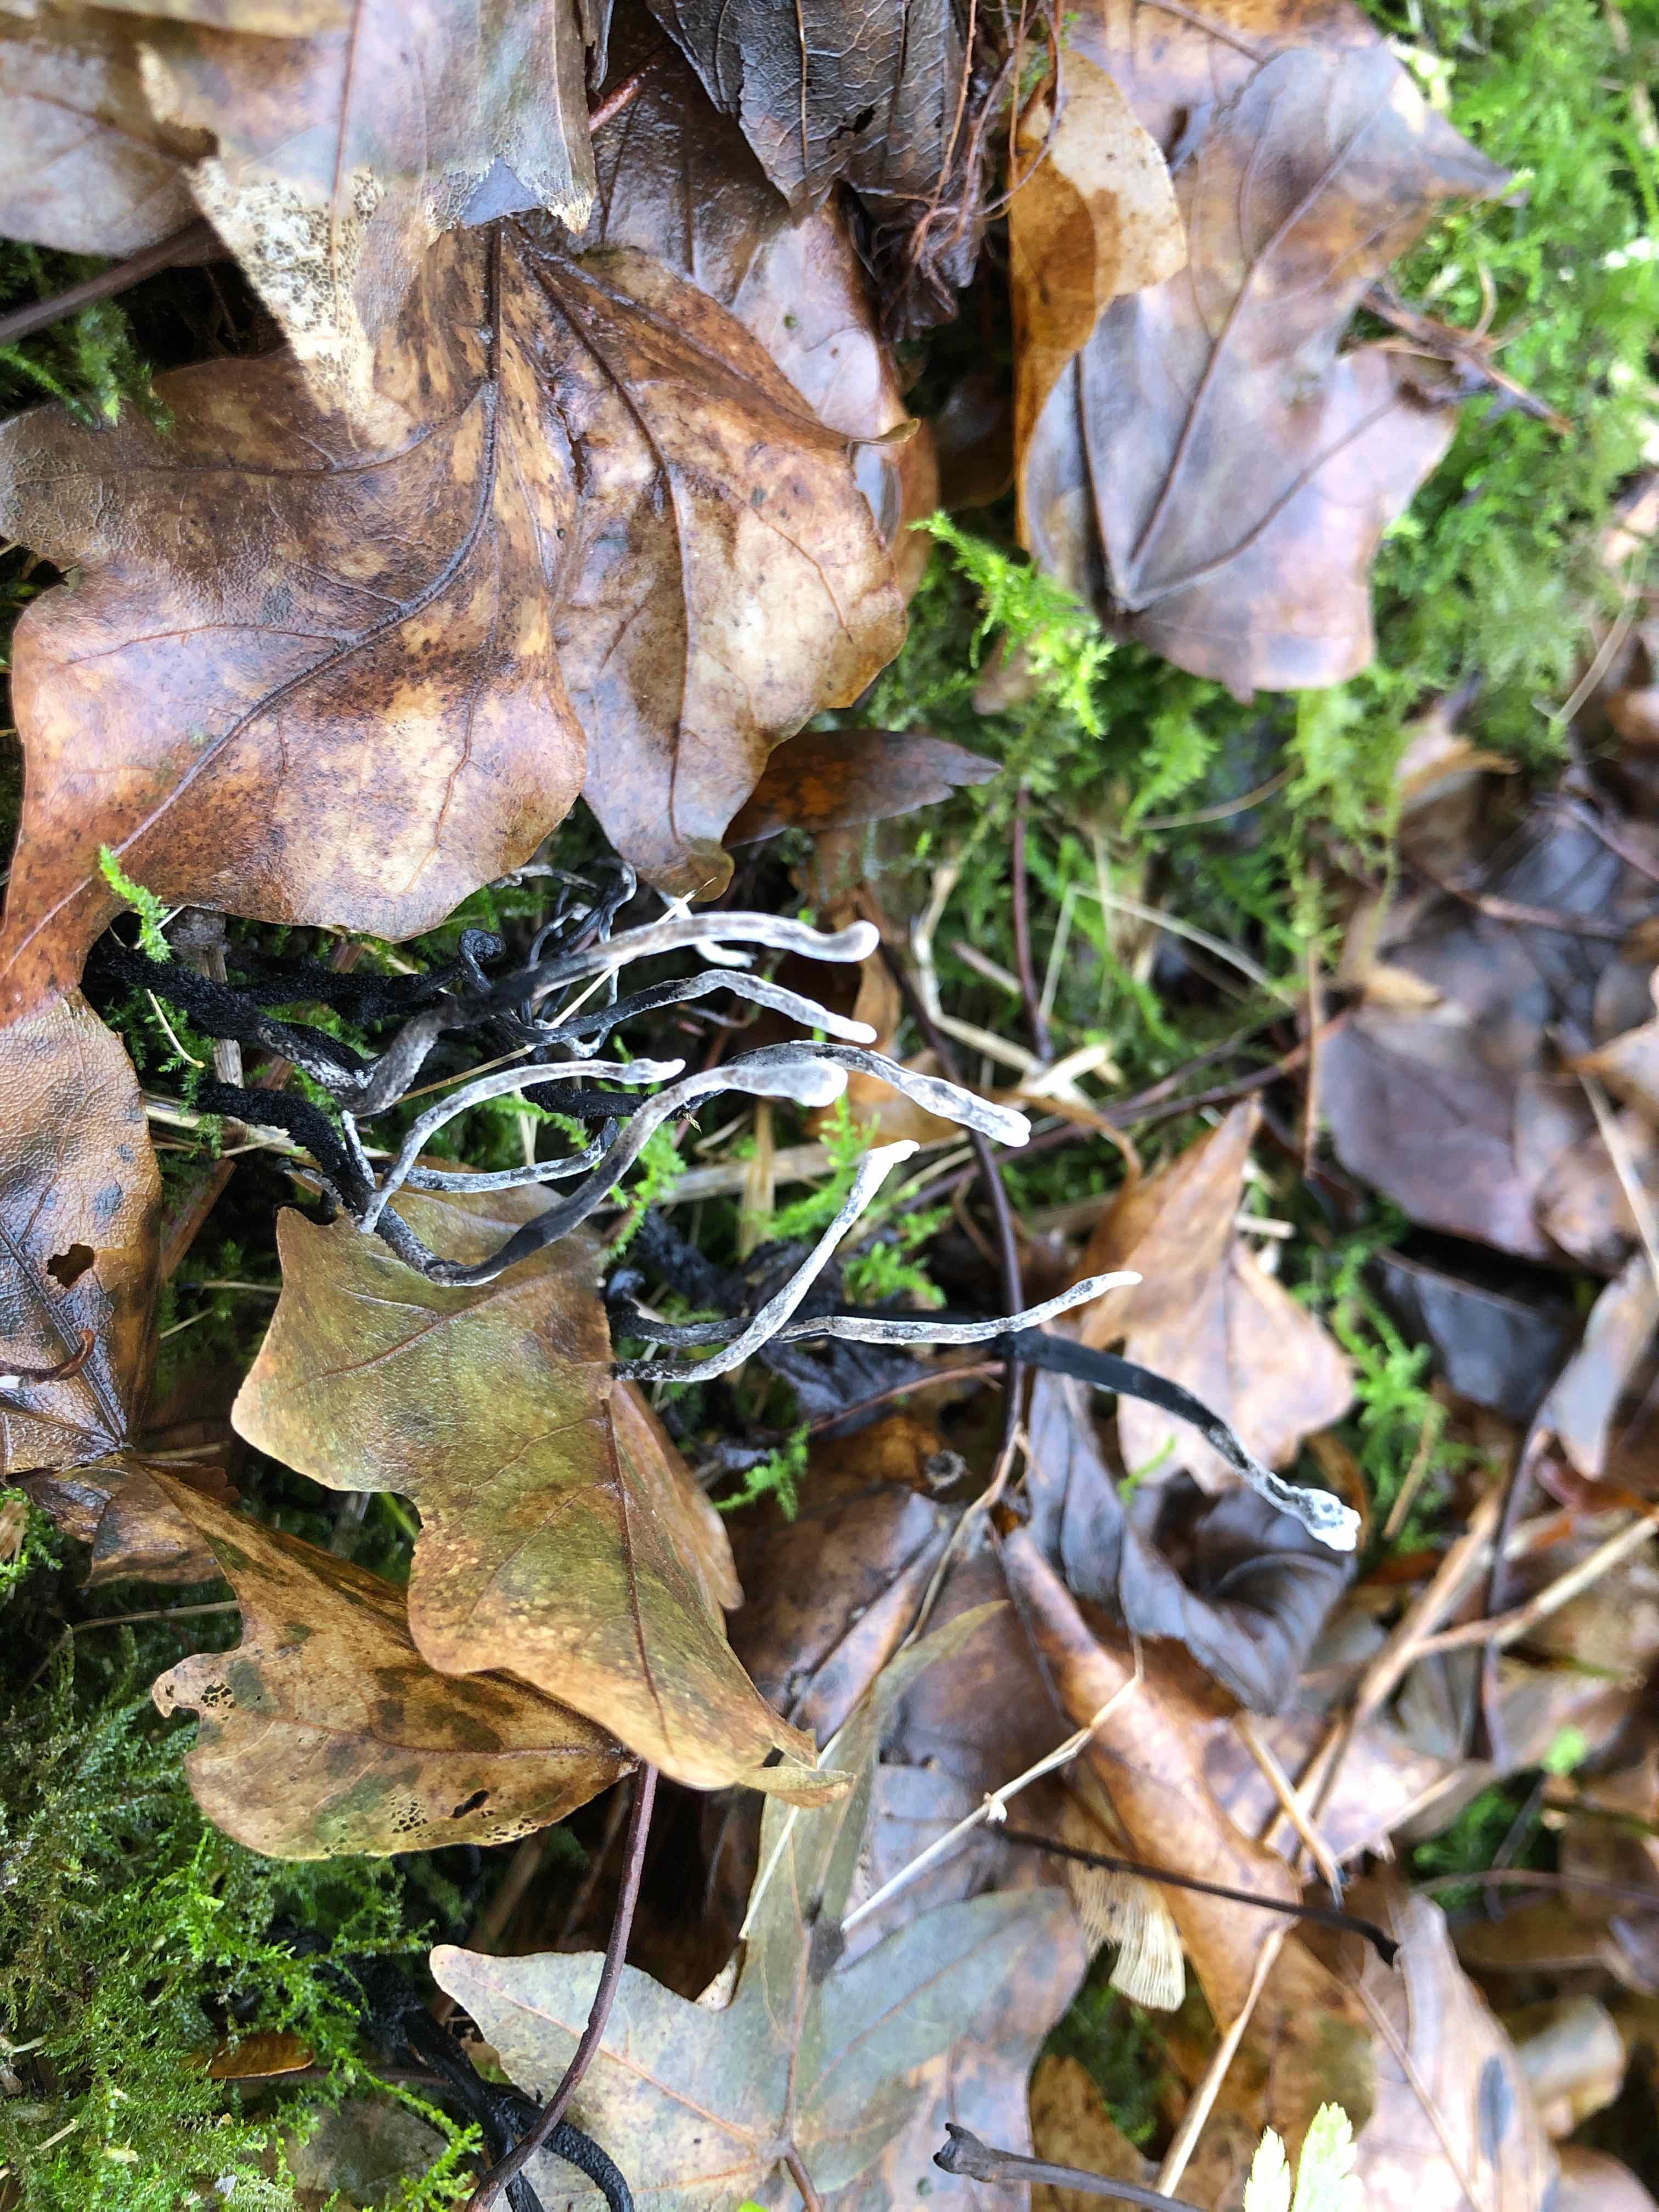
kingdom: Fungi
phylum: Ascomycota
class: Sordariomycetes
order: Xylariales
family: Xylariaceae
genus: Xylaria
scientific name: Xylaria hypoxylon
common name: grenet stødsvamp
